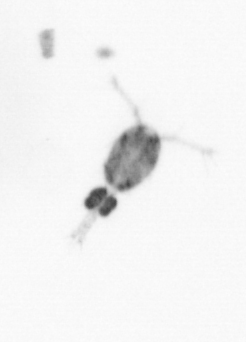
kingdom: Animalia
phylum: Arthropoda
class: Copepoda
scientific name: Copepoda
